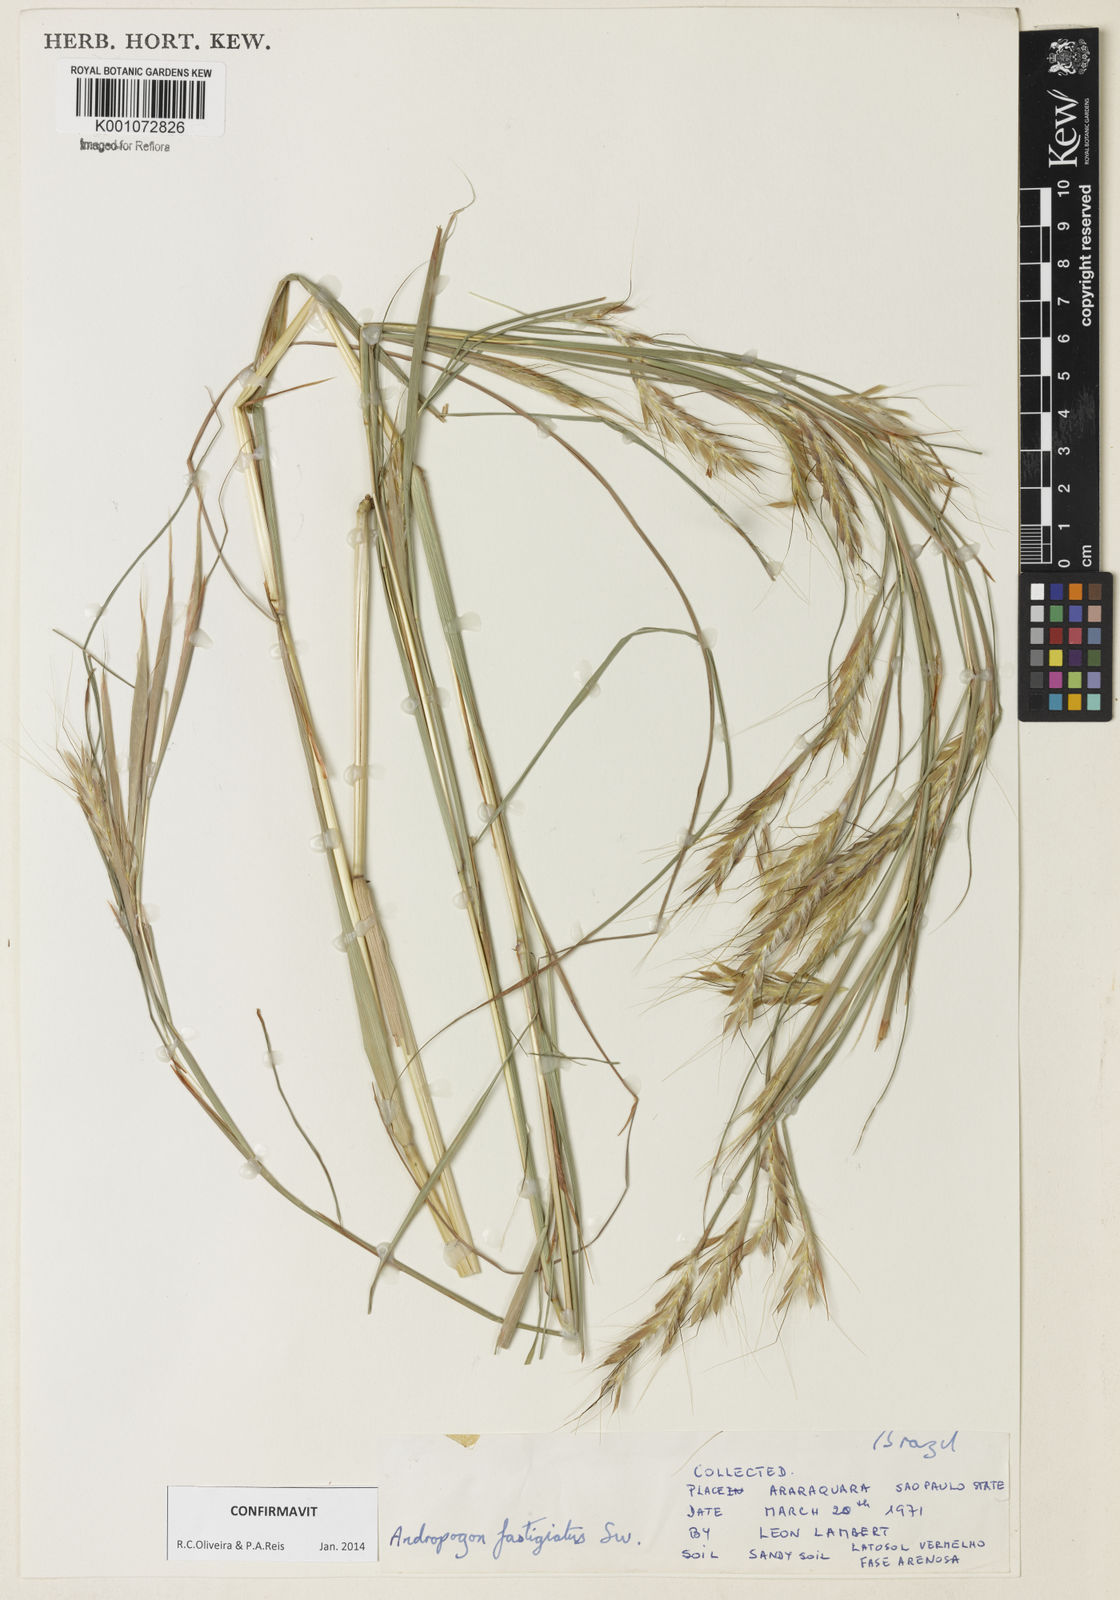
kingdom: Plantae
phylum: Tracheophyta
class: Liliopsida
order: Poales
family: Poaceae
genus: Diectomis
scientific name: Diectomis fastigiata
